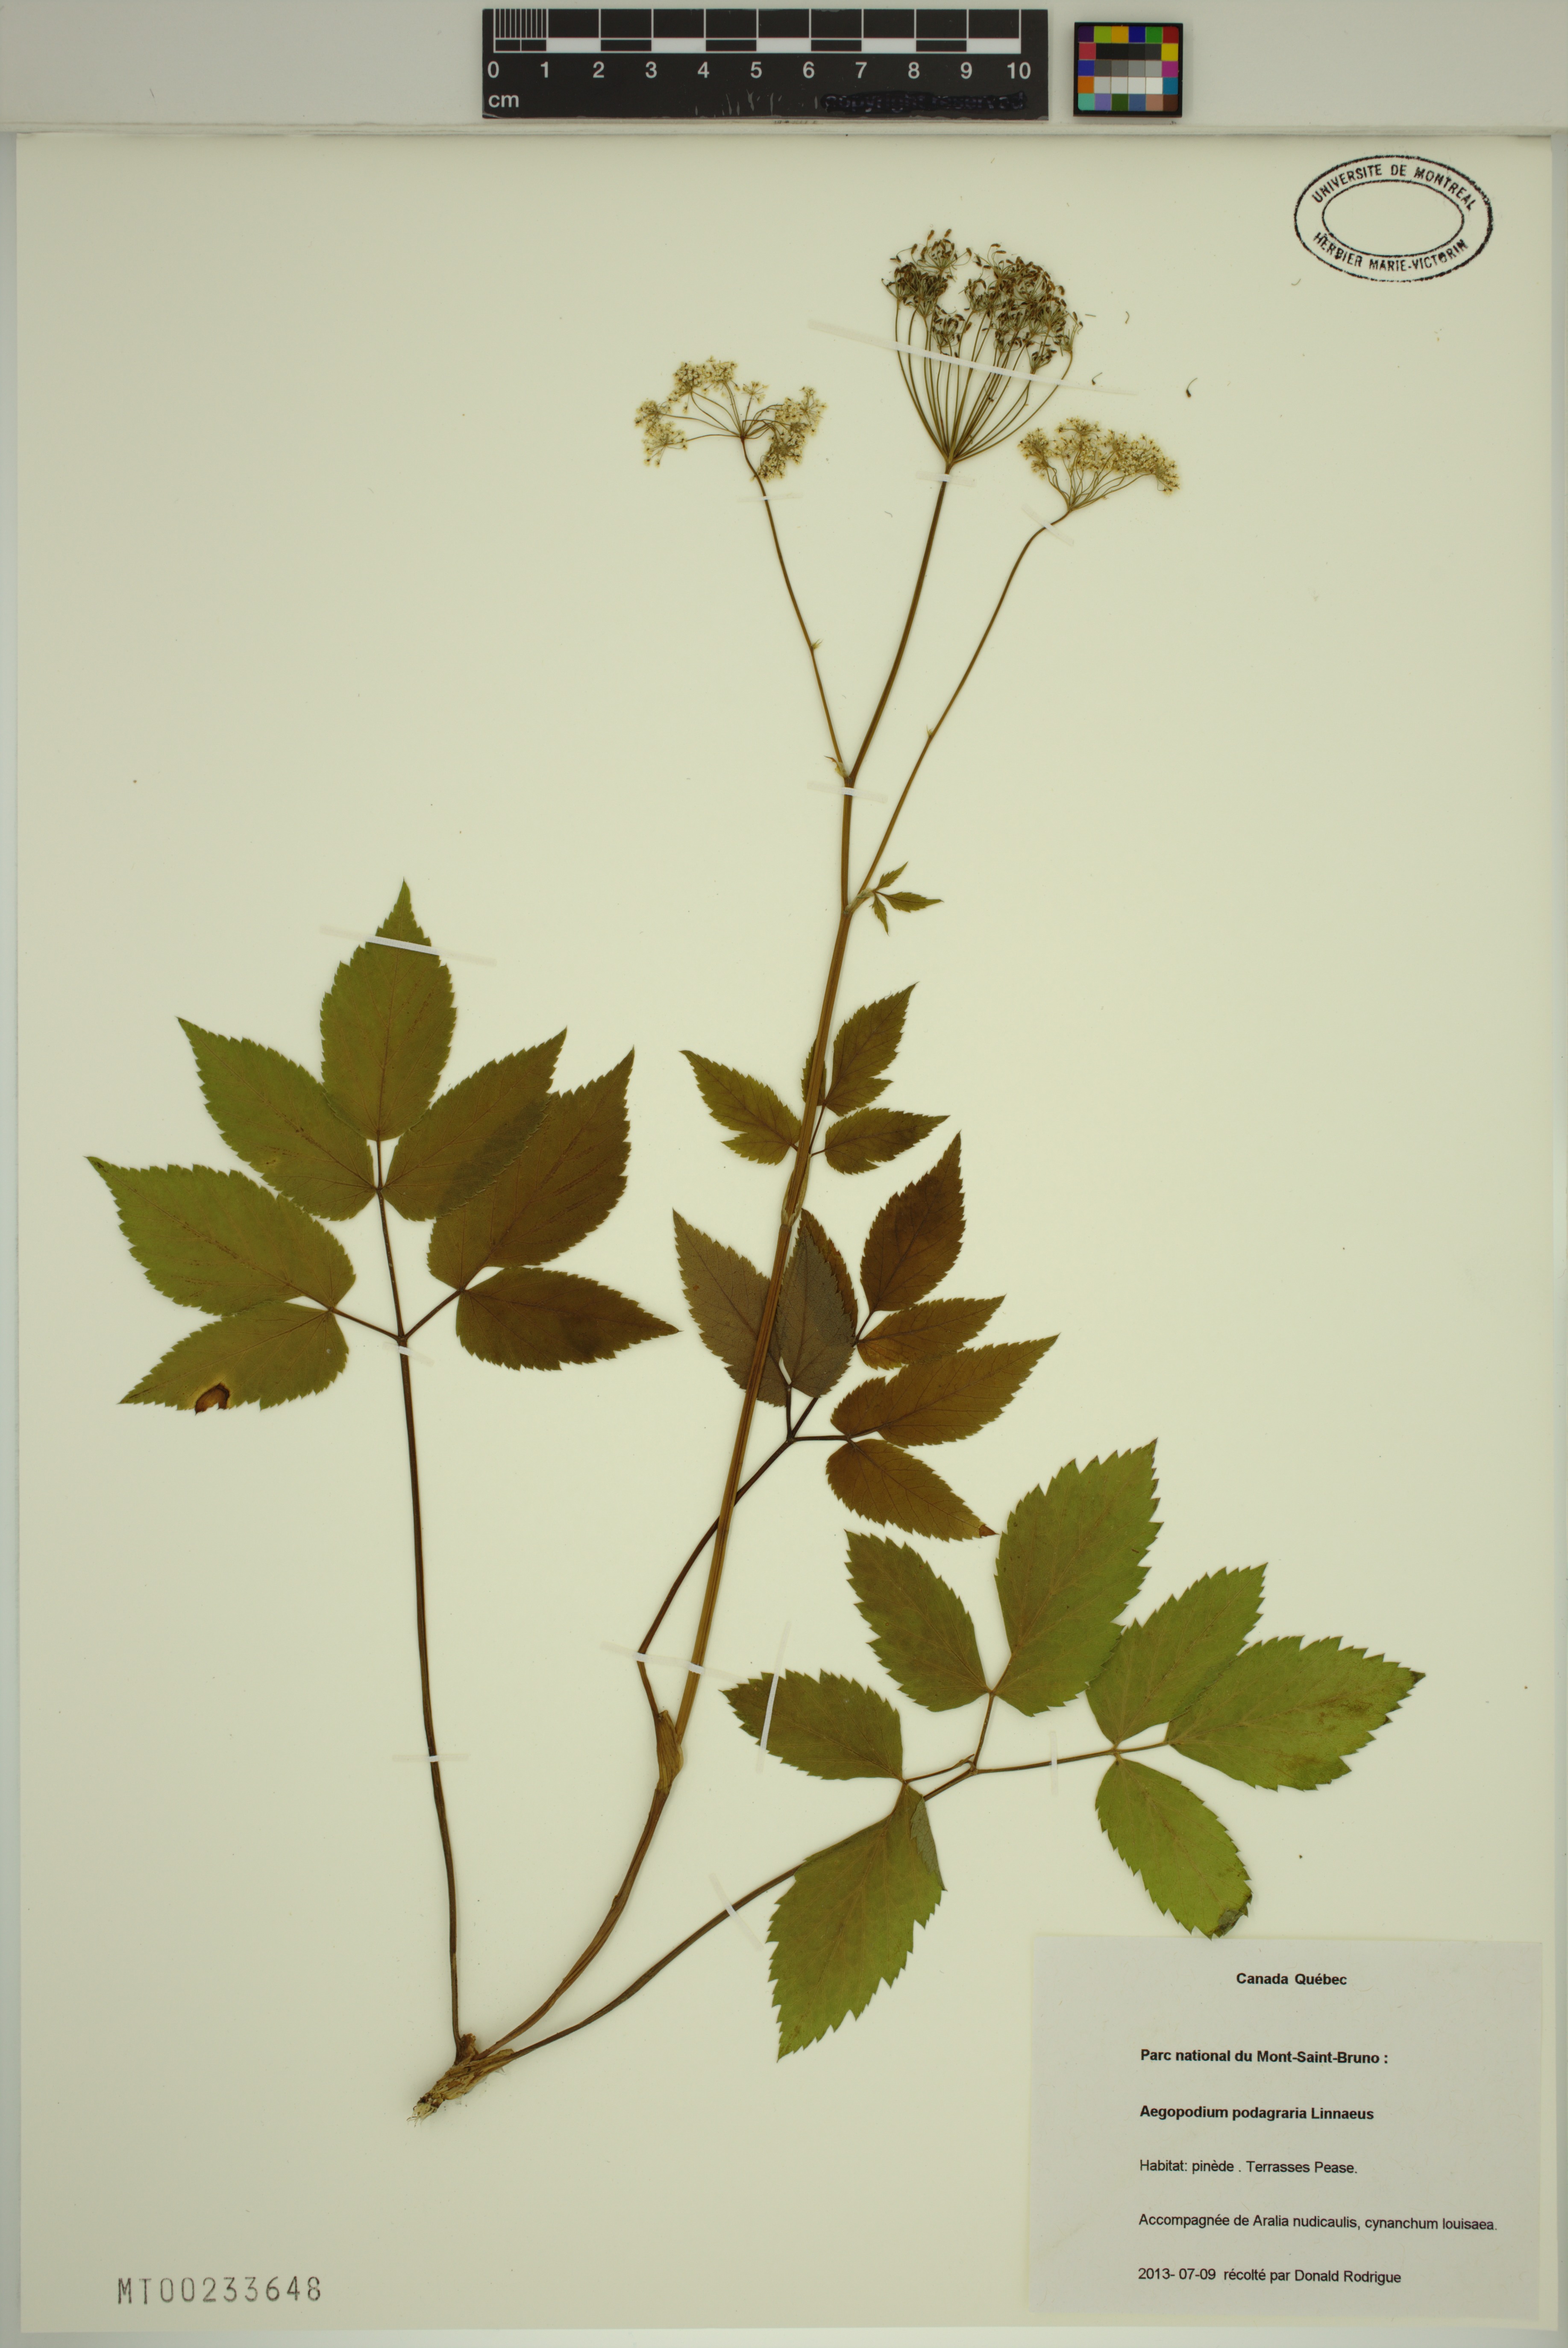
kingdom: Plantae
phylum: Tracheophyta
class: Magnoliopsida
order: Apiales
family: Apiaceae
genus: Aegopodium
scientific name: Aegopodium podagraria
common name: Ground-elder
